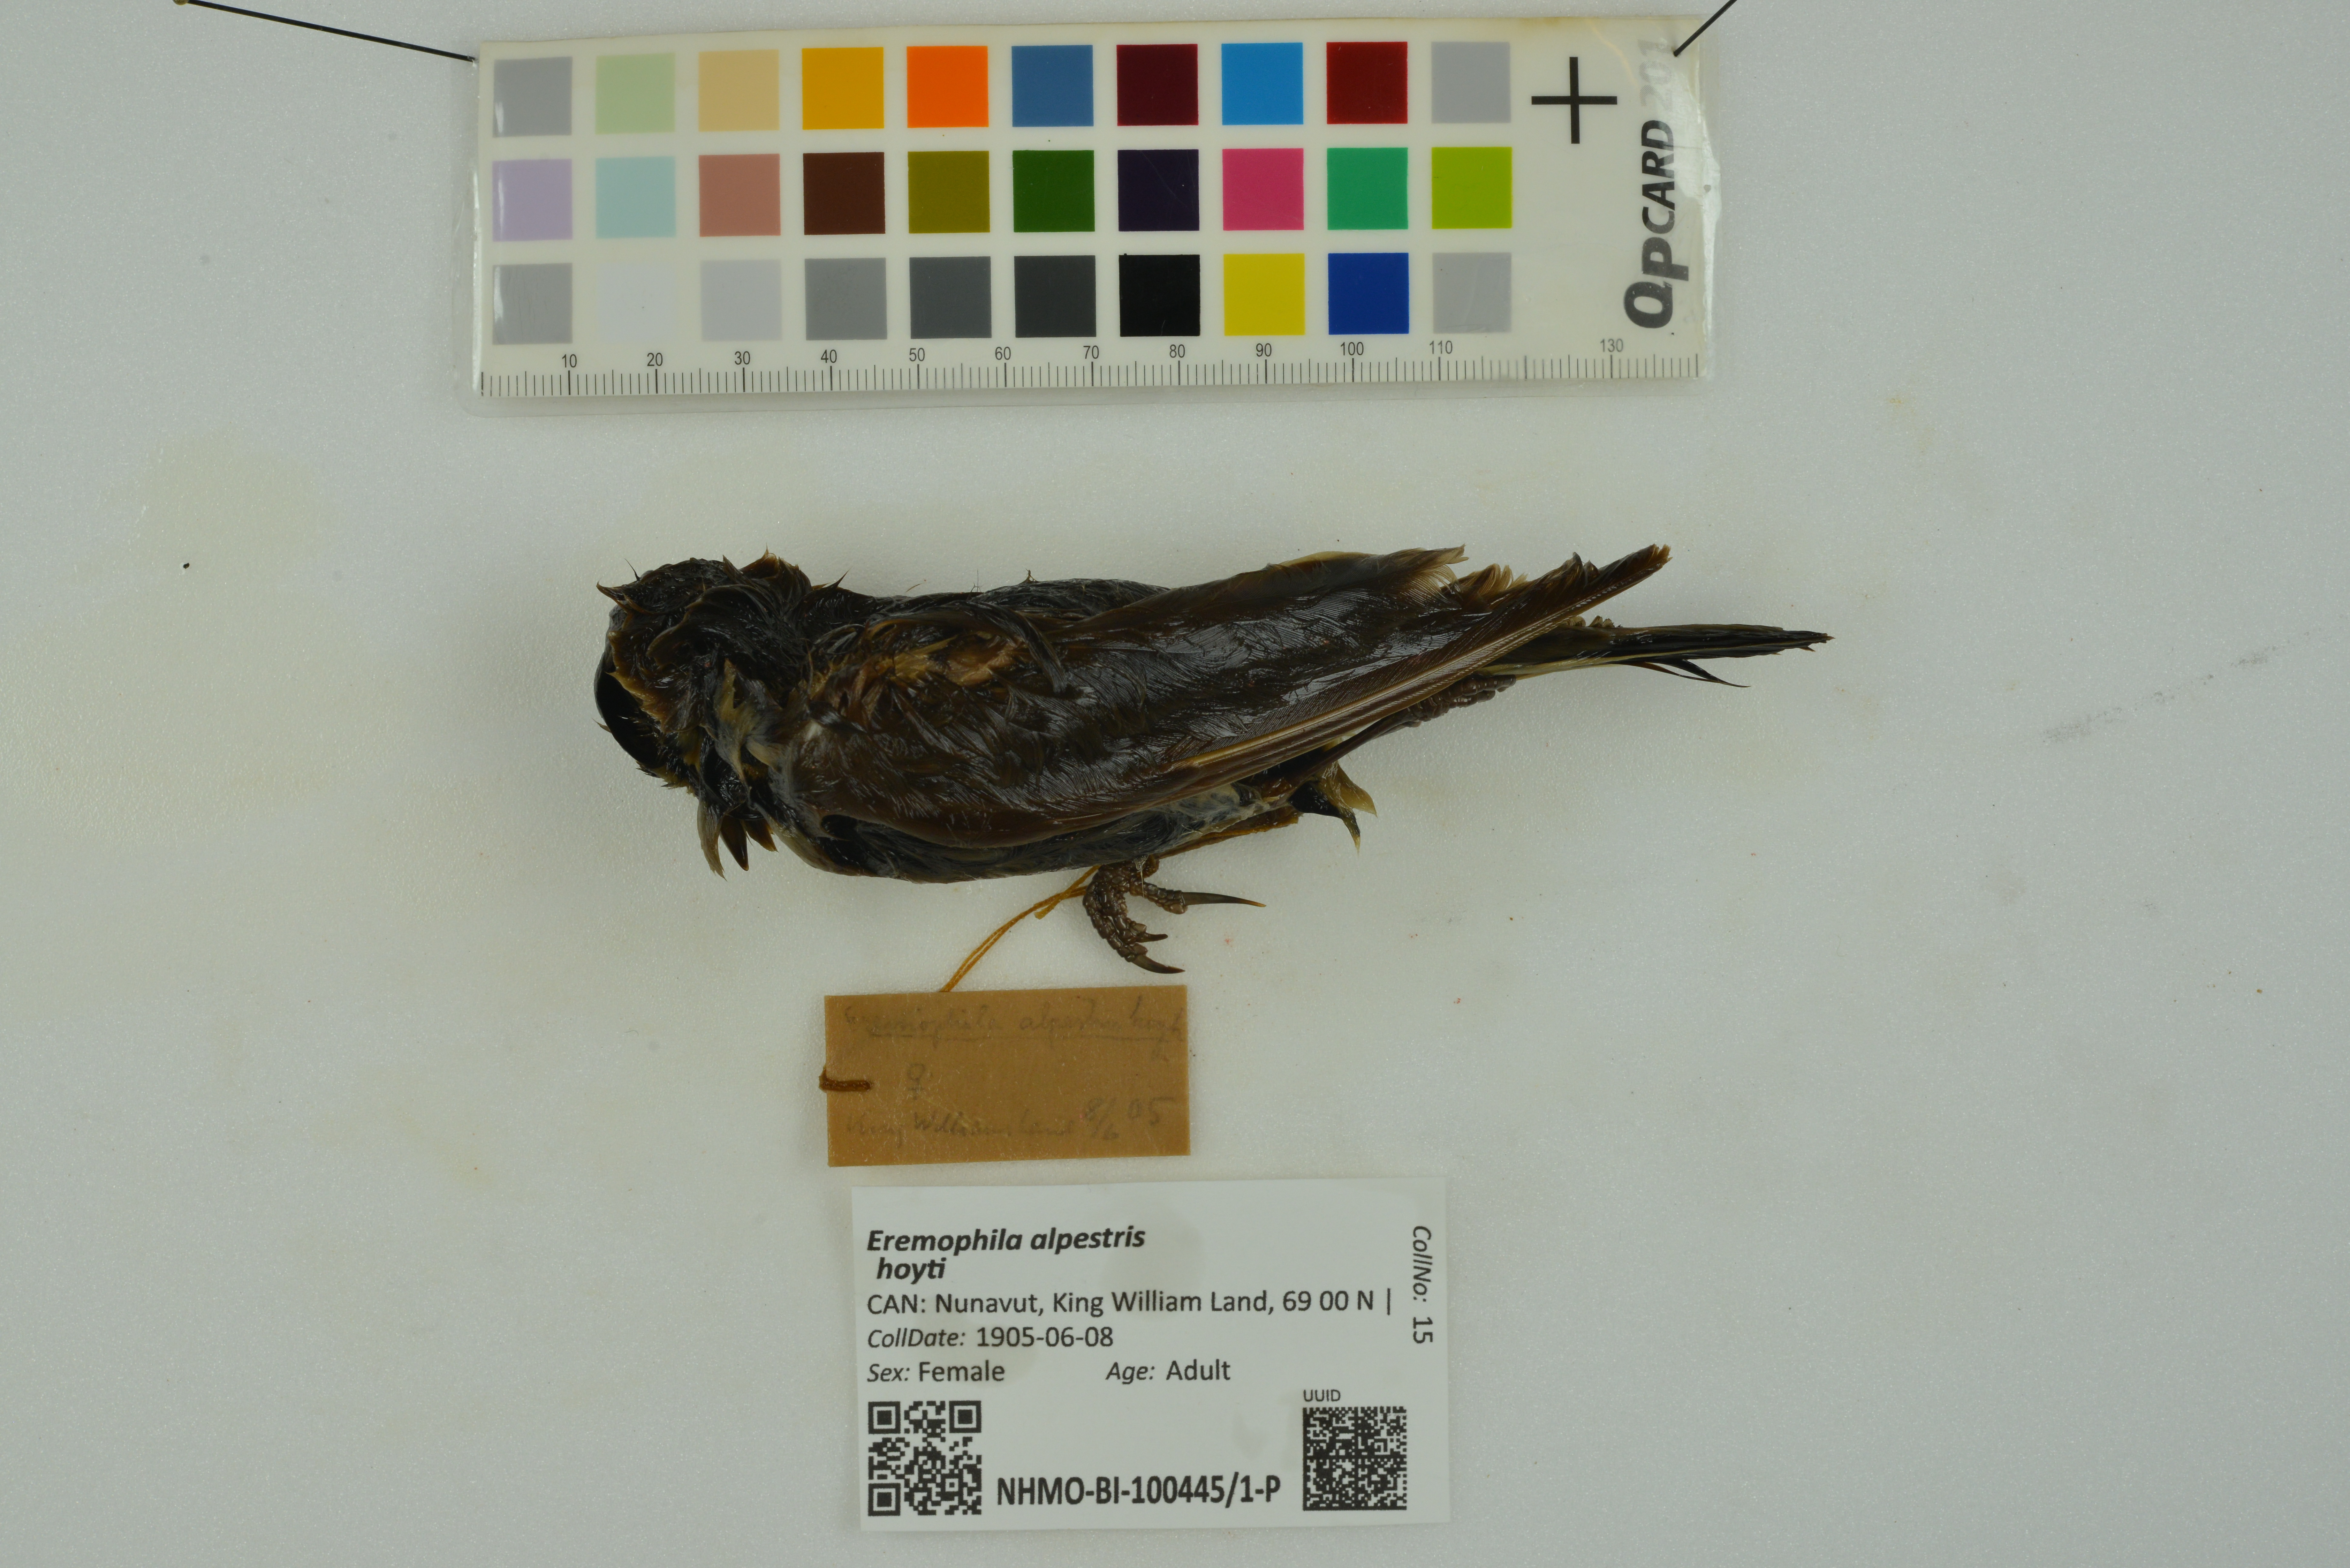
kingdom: Animalia
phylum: Chordata
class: Aves
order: Passeriformes
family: Alaudidae
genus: Eremophila
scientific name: Eremophila alpestris
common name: Horned lark
